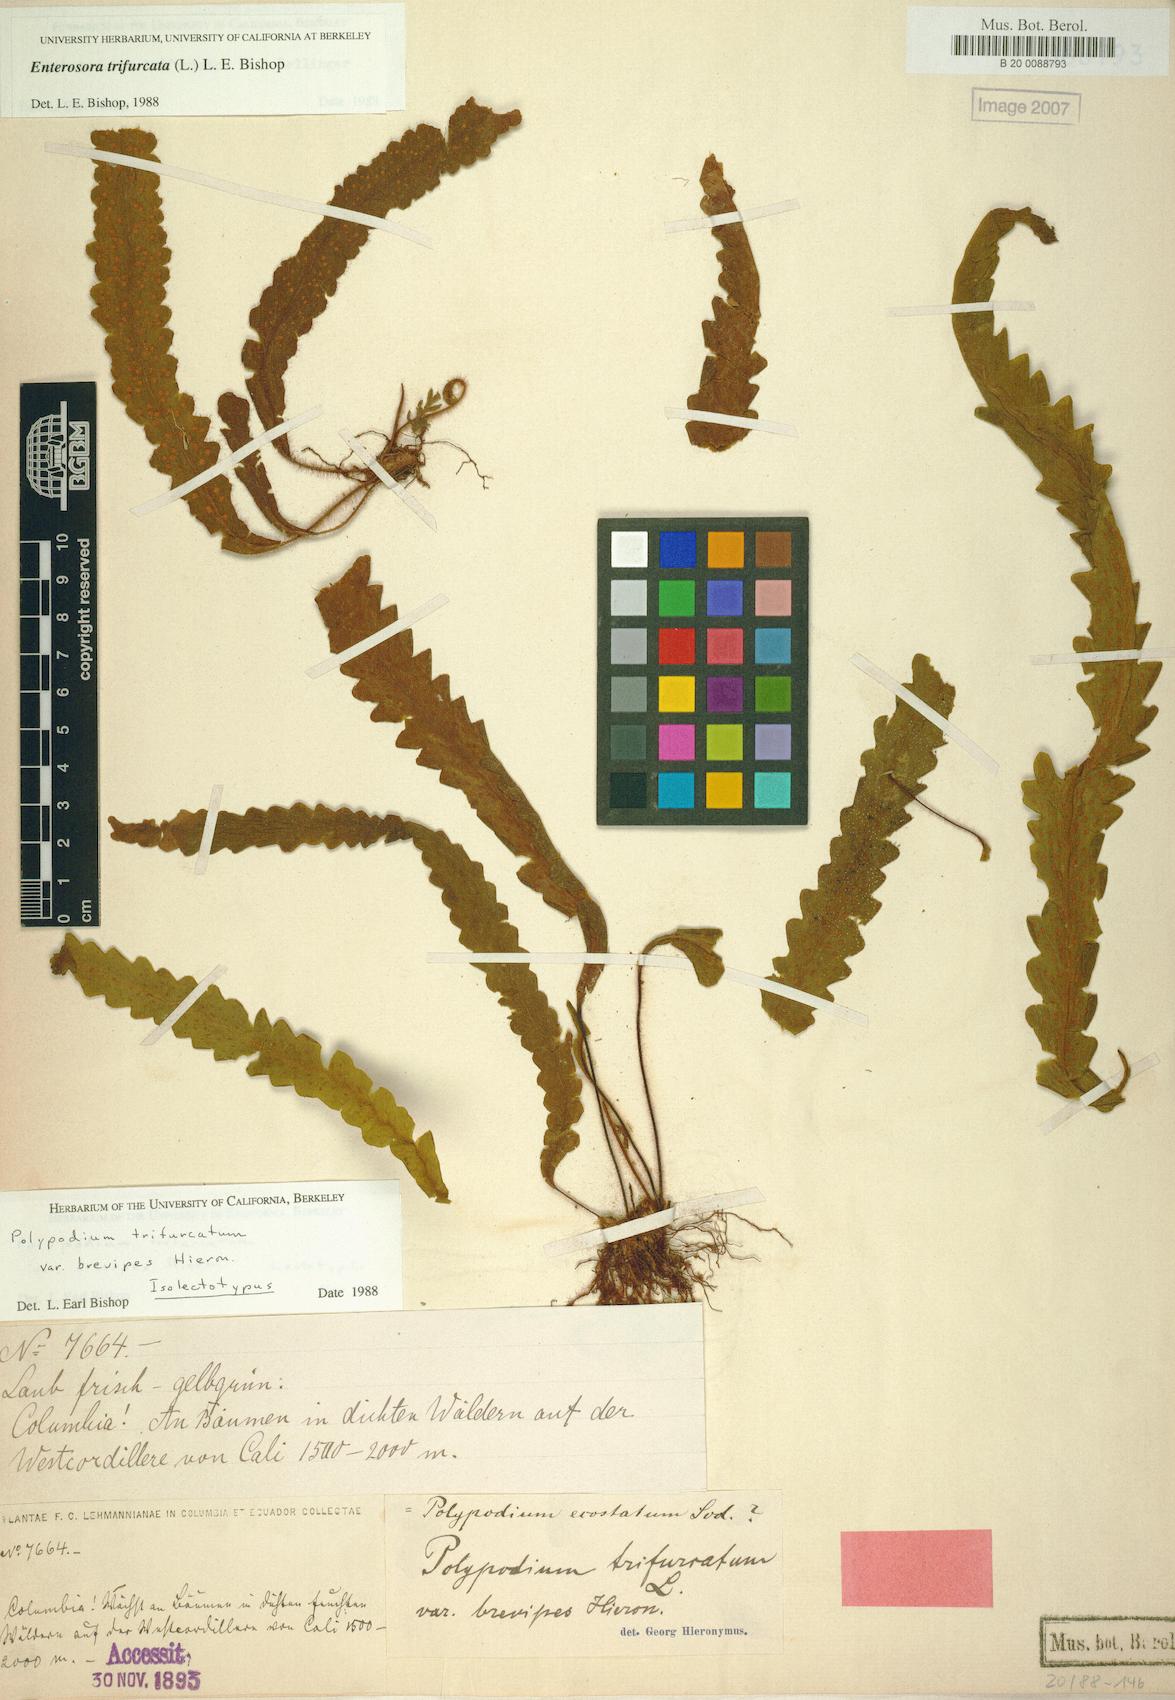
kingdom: Plantae
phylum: Tracheophyta
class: Polypodiopsida
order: Polypodiales
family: Polypodiaceae
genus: Enterosora
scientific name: Enterosora trifurcata
